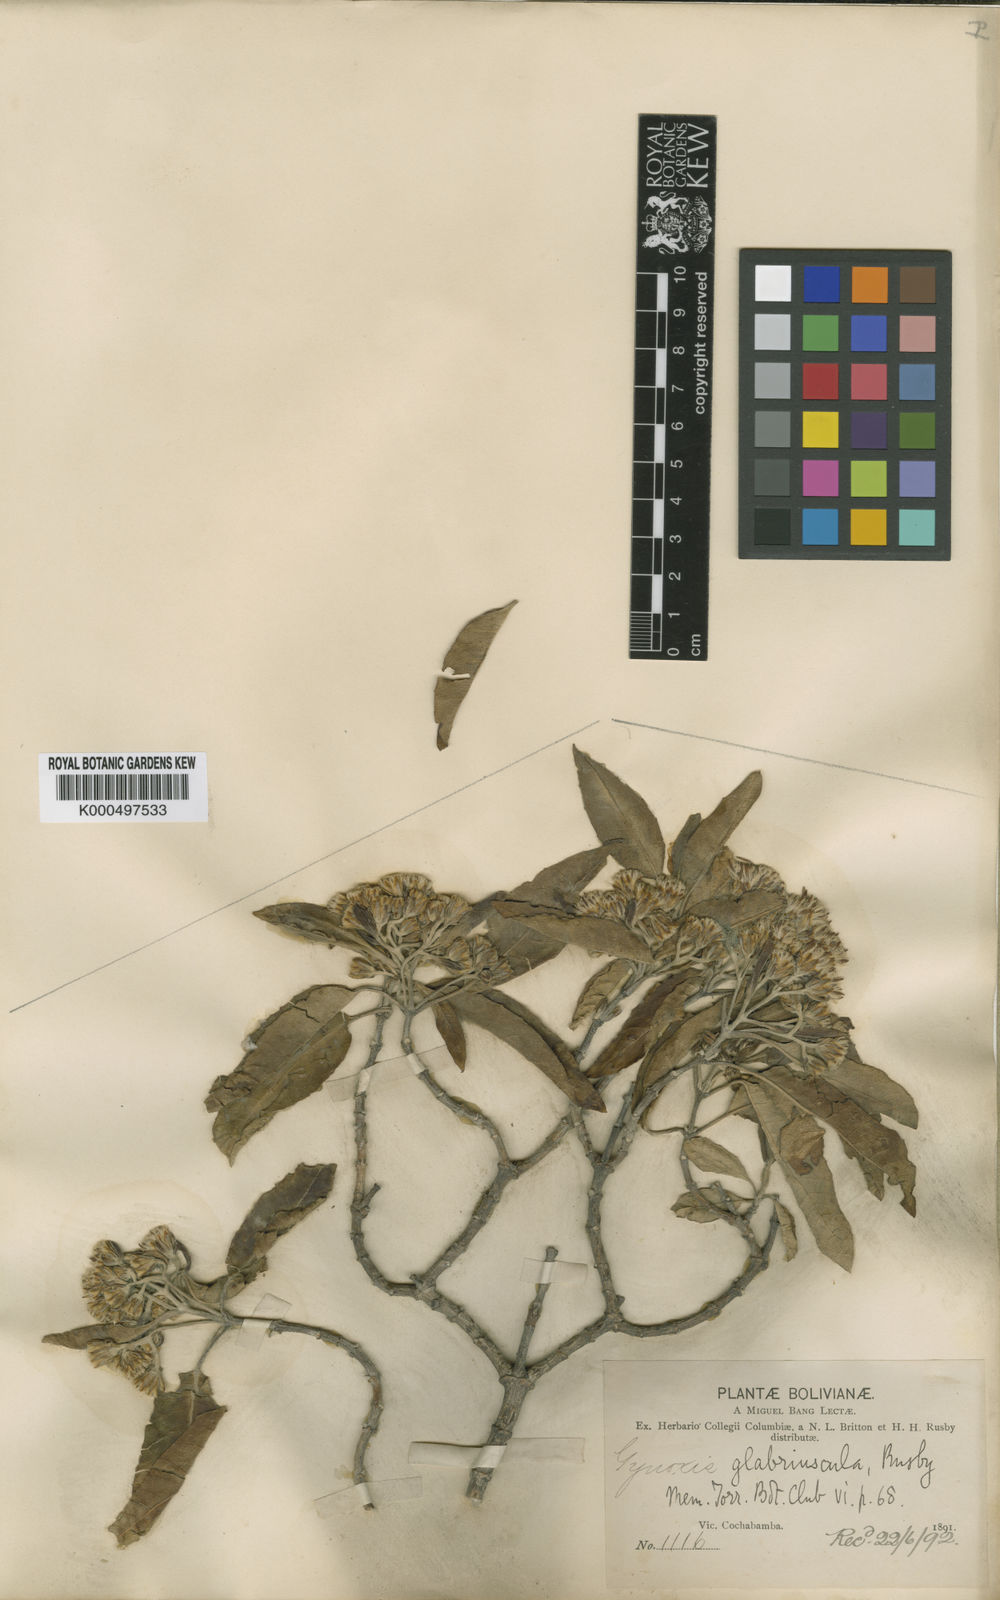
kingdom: Plantae
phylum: Tracheophyta
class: Magnoliopsida
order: Asterales
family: Asteraceae
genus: Gynoxys
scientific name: Gynoxys psilophylla
